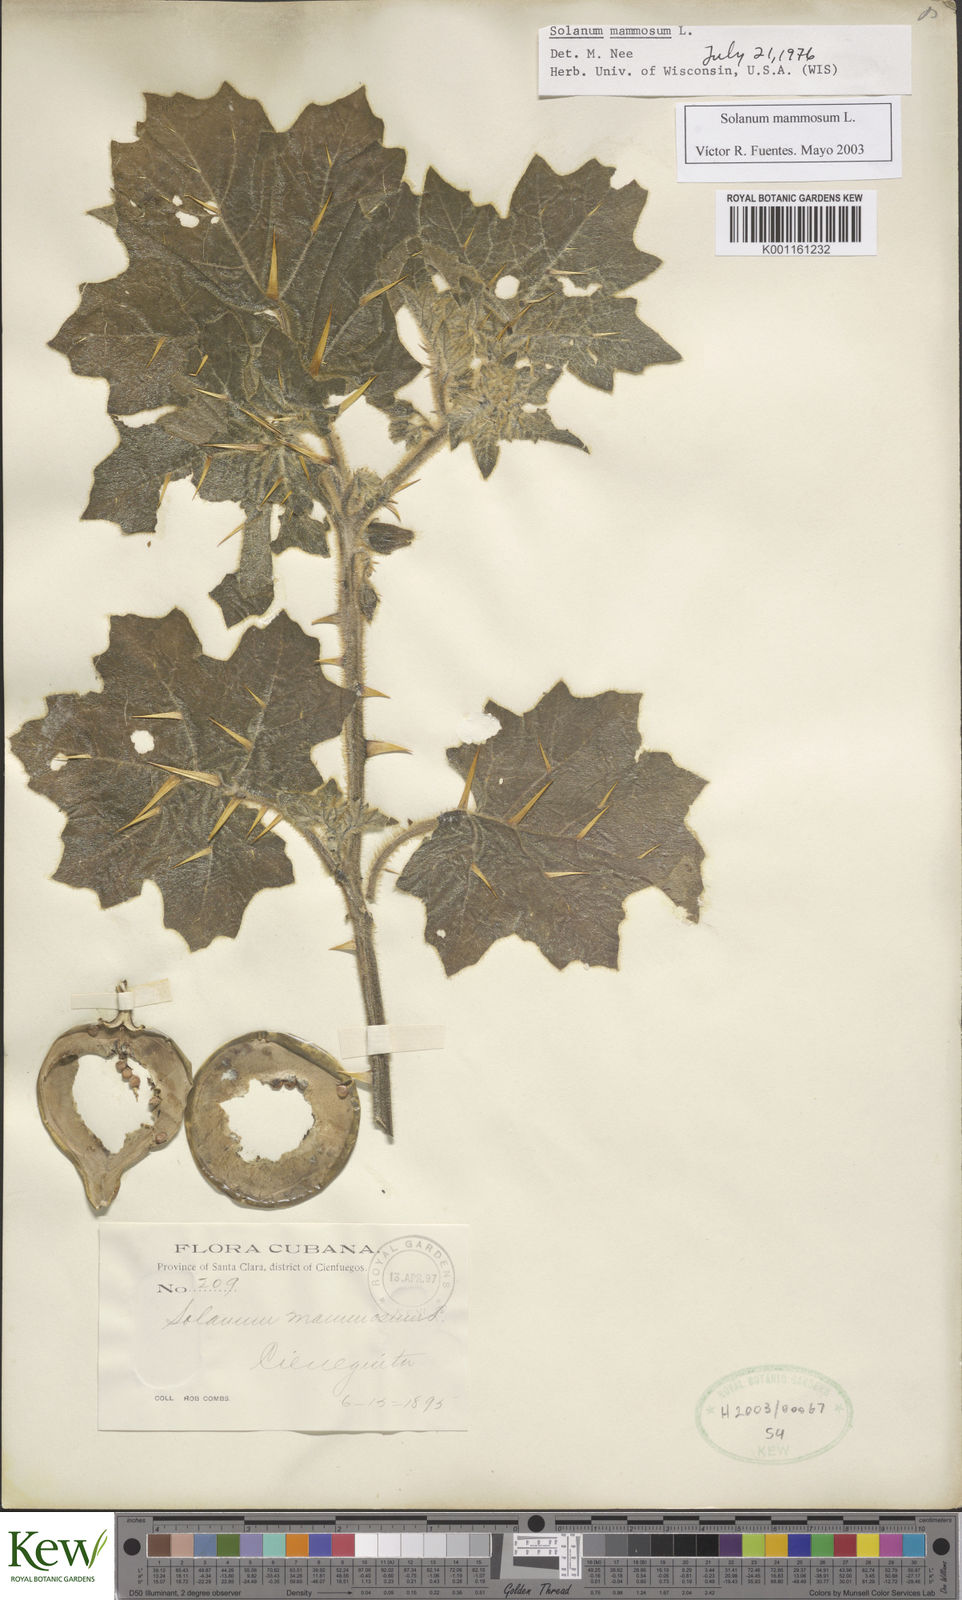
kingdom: Plantae
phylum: Tracheophyta
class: Magnoliopsida
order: Solanales
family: Solanaceae
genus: Solanum
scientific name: Solanum mammosum
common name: Nipple fruit
